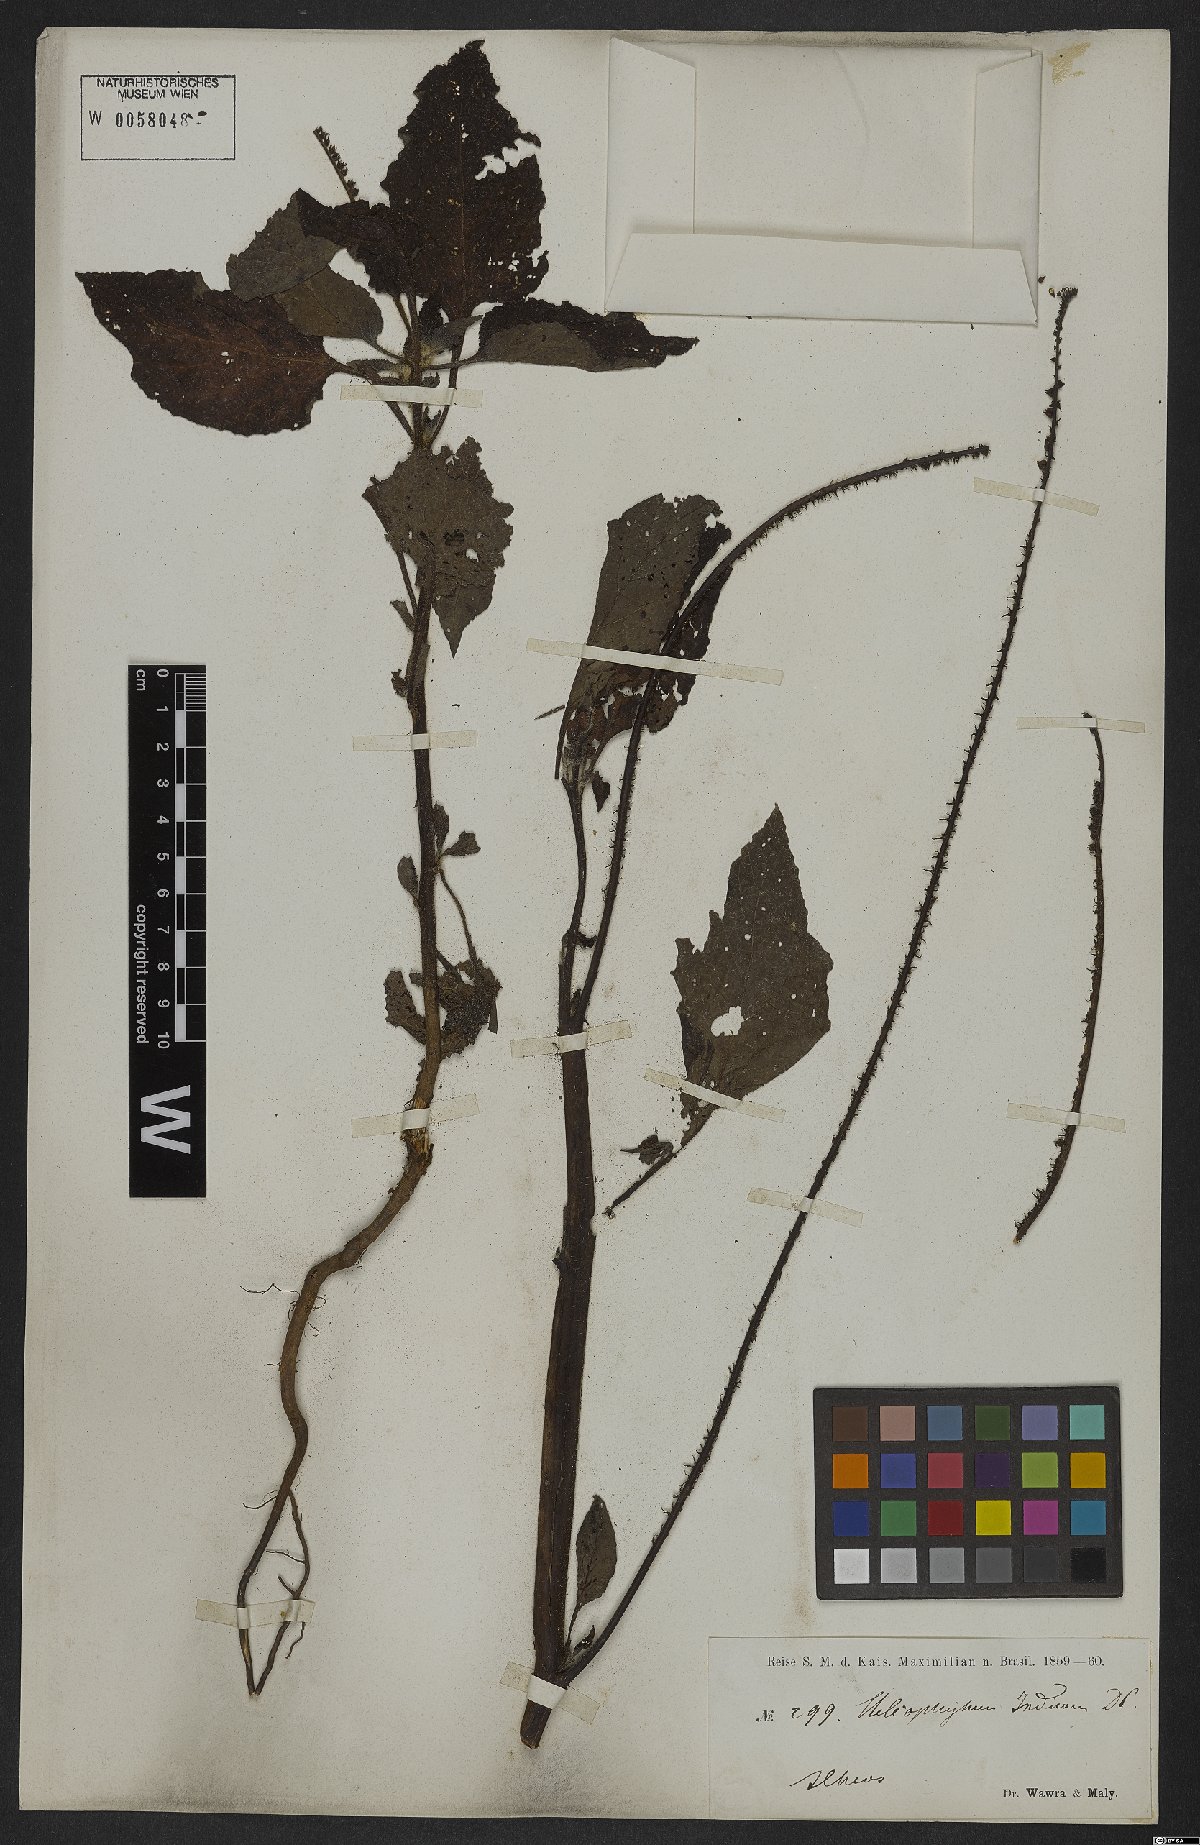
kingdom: Plantae
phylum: Tracheophyta
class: Magnoliopsida
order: Boraginales
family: Heliotropiaceae
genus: Heliotropium
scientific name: Heliotropium indicum
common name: Indian heliotrope
